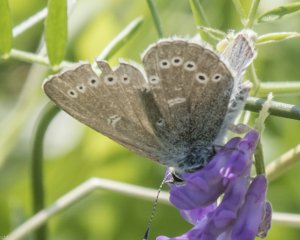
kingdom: Animalia
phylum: Arthropoda
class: Insecta
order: Lepidoptera
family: Lycaenidae
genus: Glaucopsyche
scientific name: Glaucopsyche lygdamus
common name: Silvery Blue
